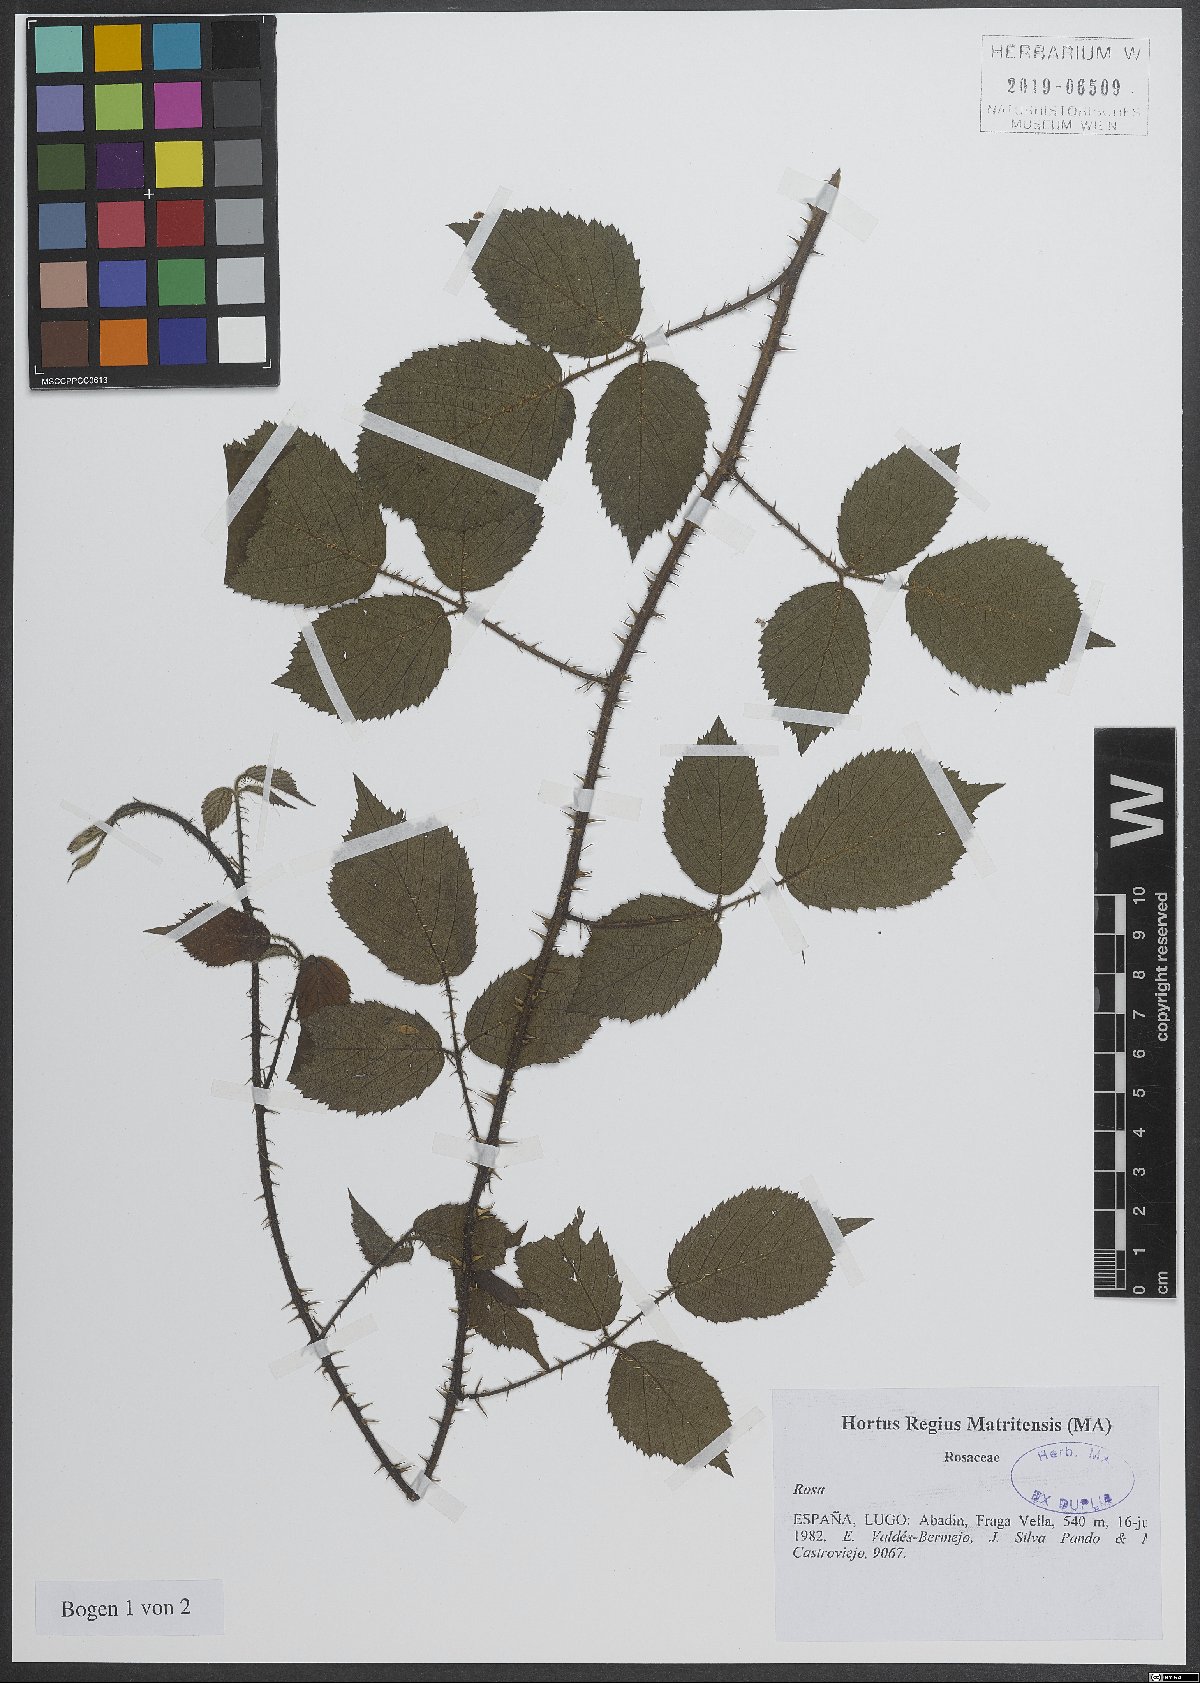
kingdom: Plantae
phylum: Tracheophyta
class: Magnoliopsida
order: Rosales
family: Rosaceae
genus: Rosa
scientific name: Rosa
